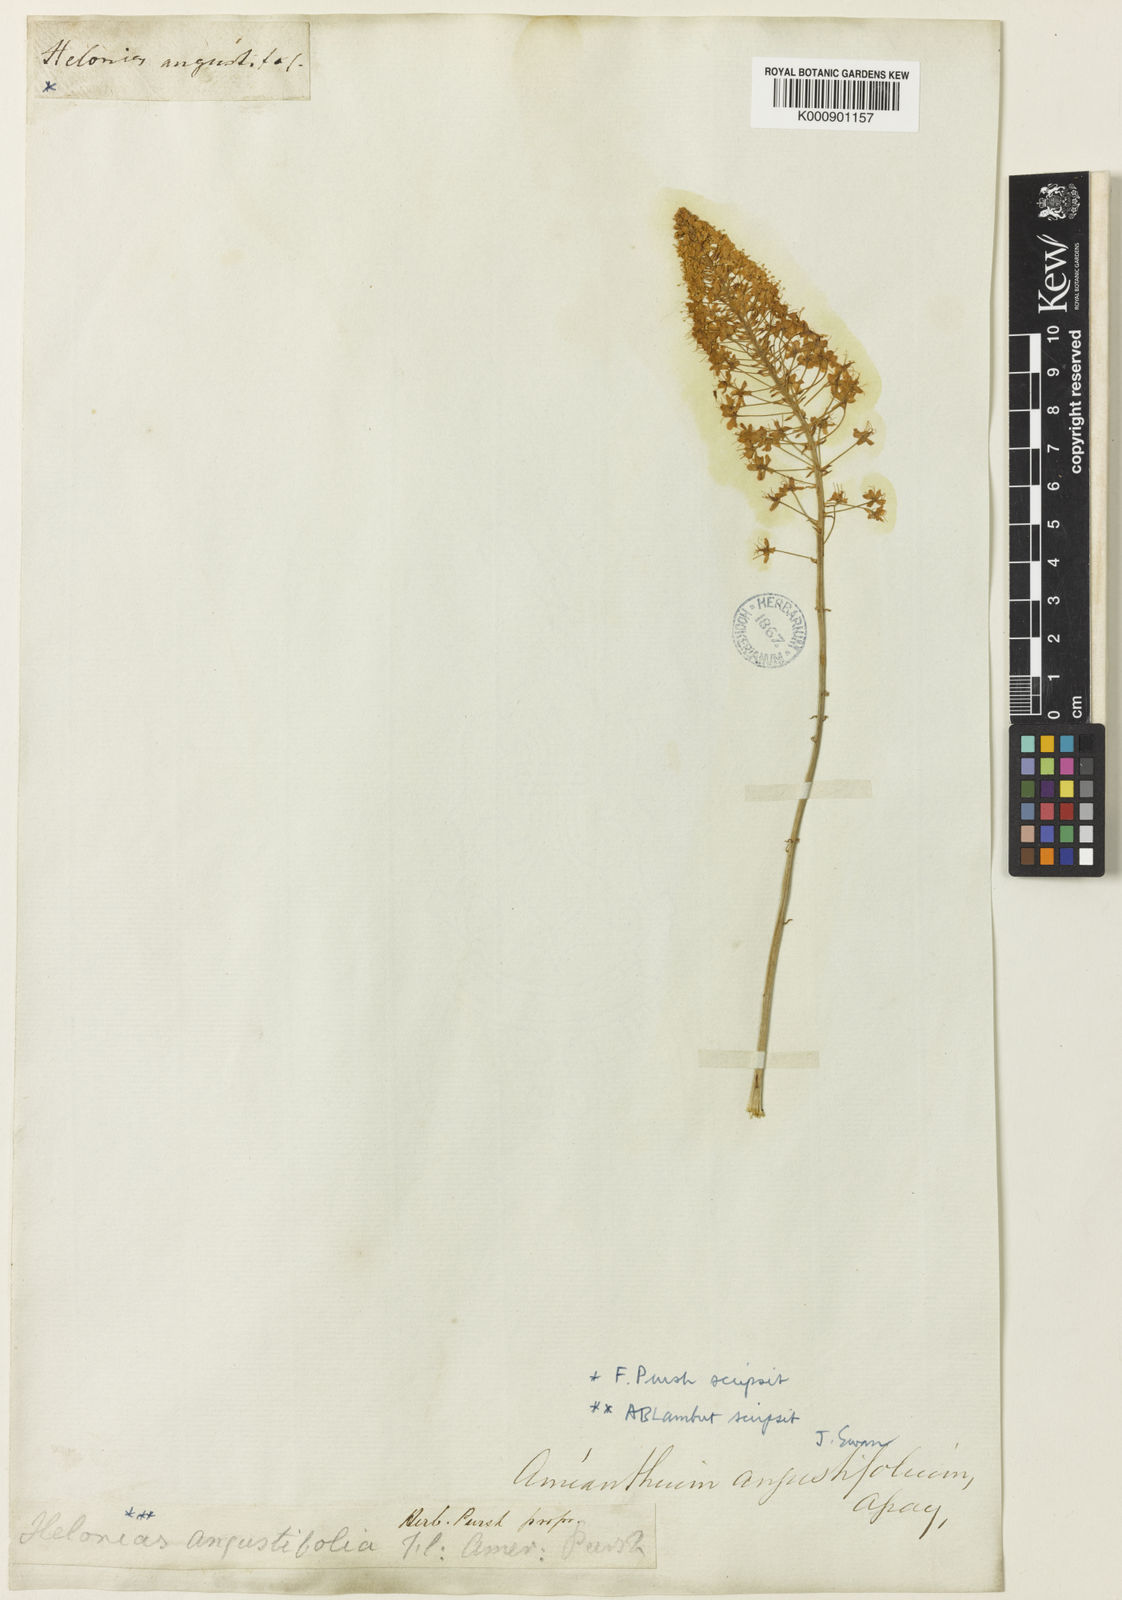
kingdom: Plantae
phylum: Tracheophyta
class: Liliopsida
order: Liliales
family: Melanthiaceae
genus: Stenanthium
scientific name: Stenanthium densum
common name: Crow-poison
